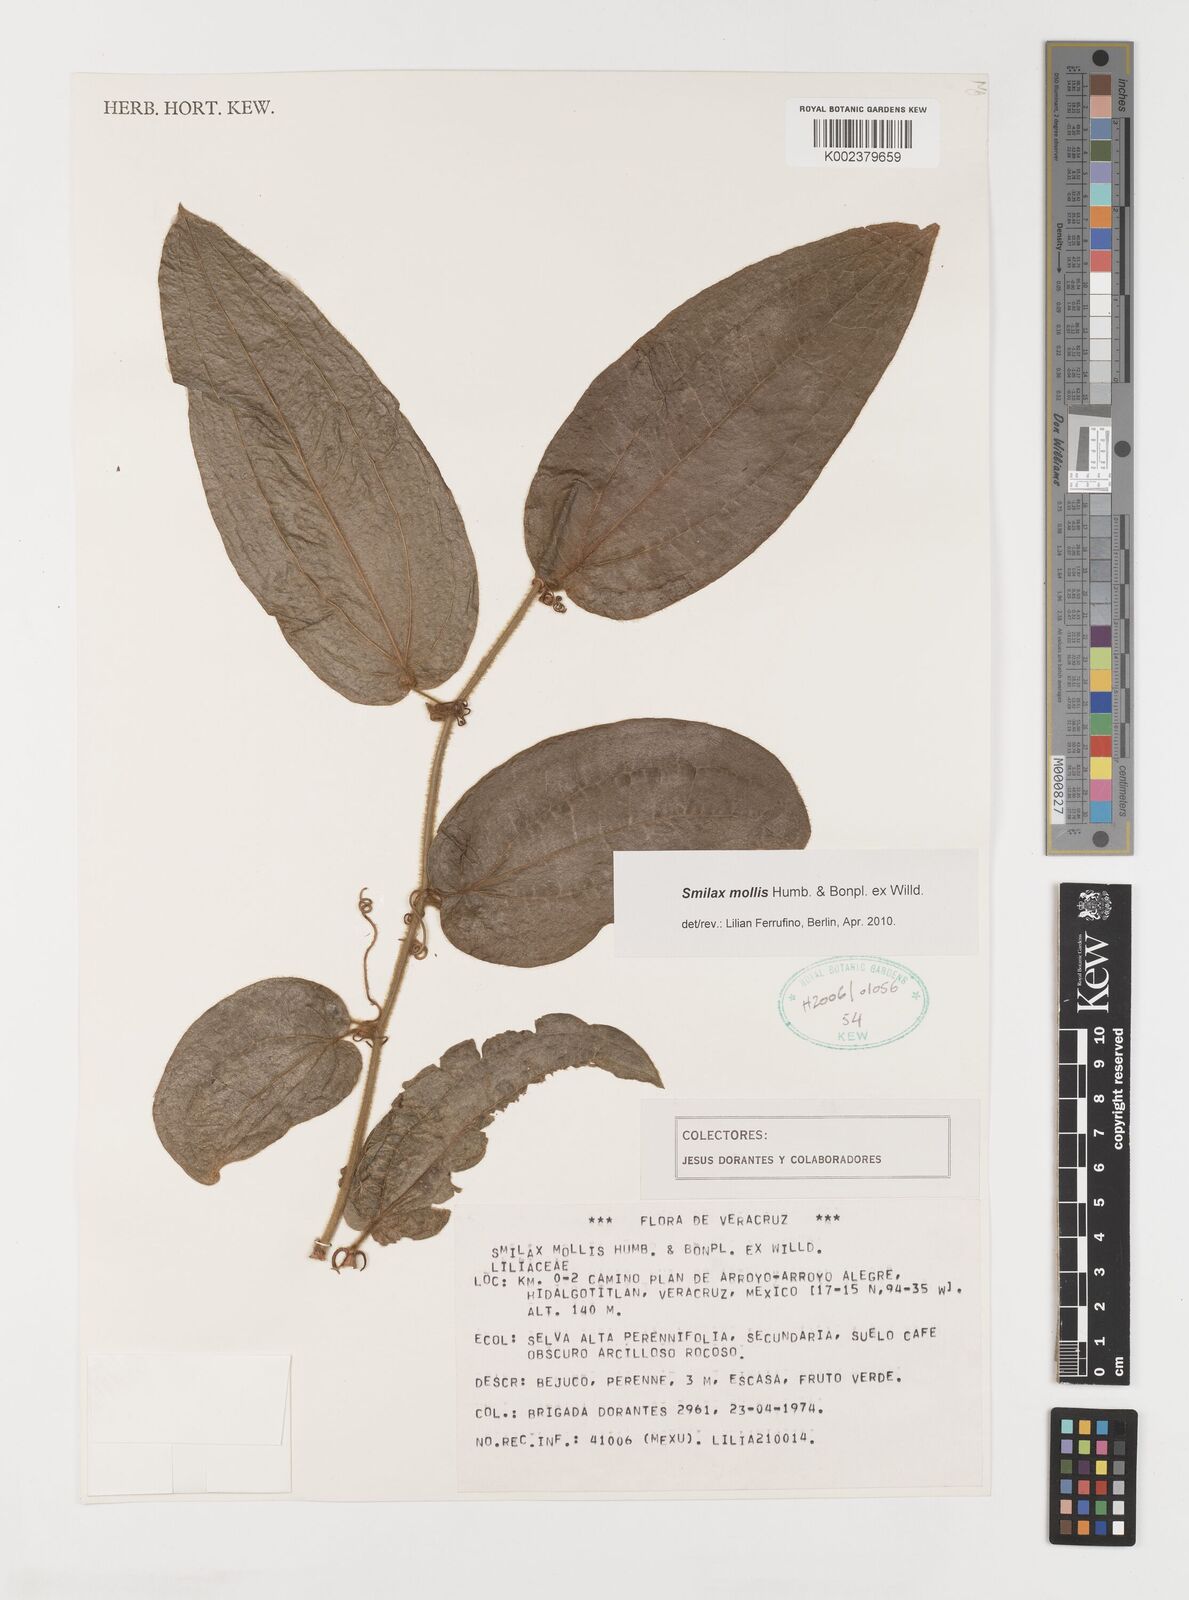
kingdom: Plantae
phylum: Tracheophyta
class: Liliopsida
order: Liliales
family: Smilacaceae
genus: Smilax
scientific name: Smilax mollis
